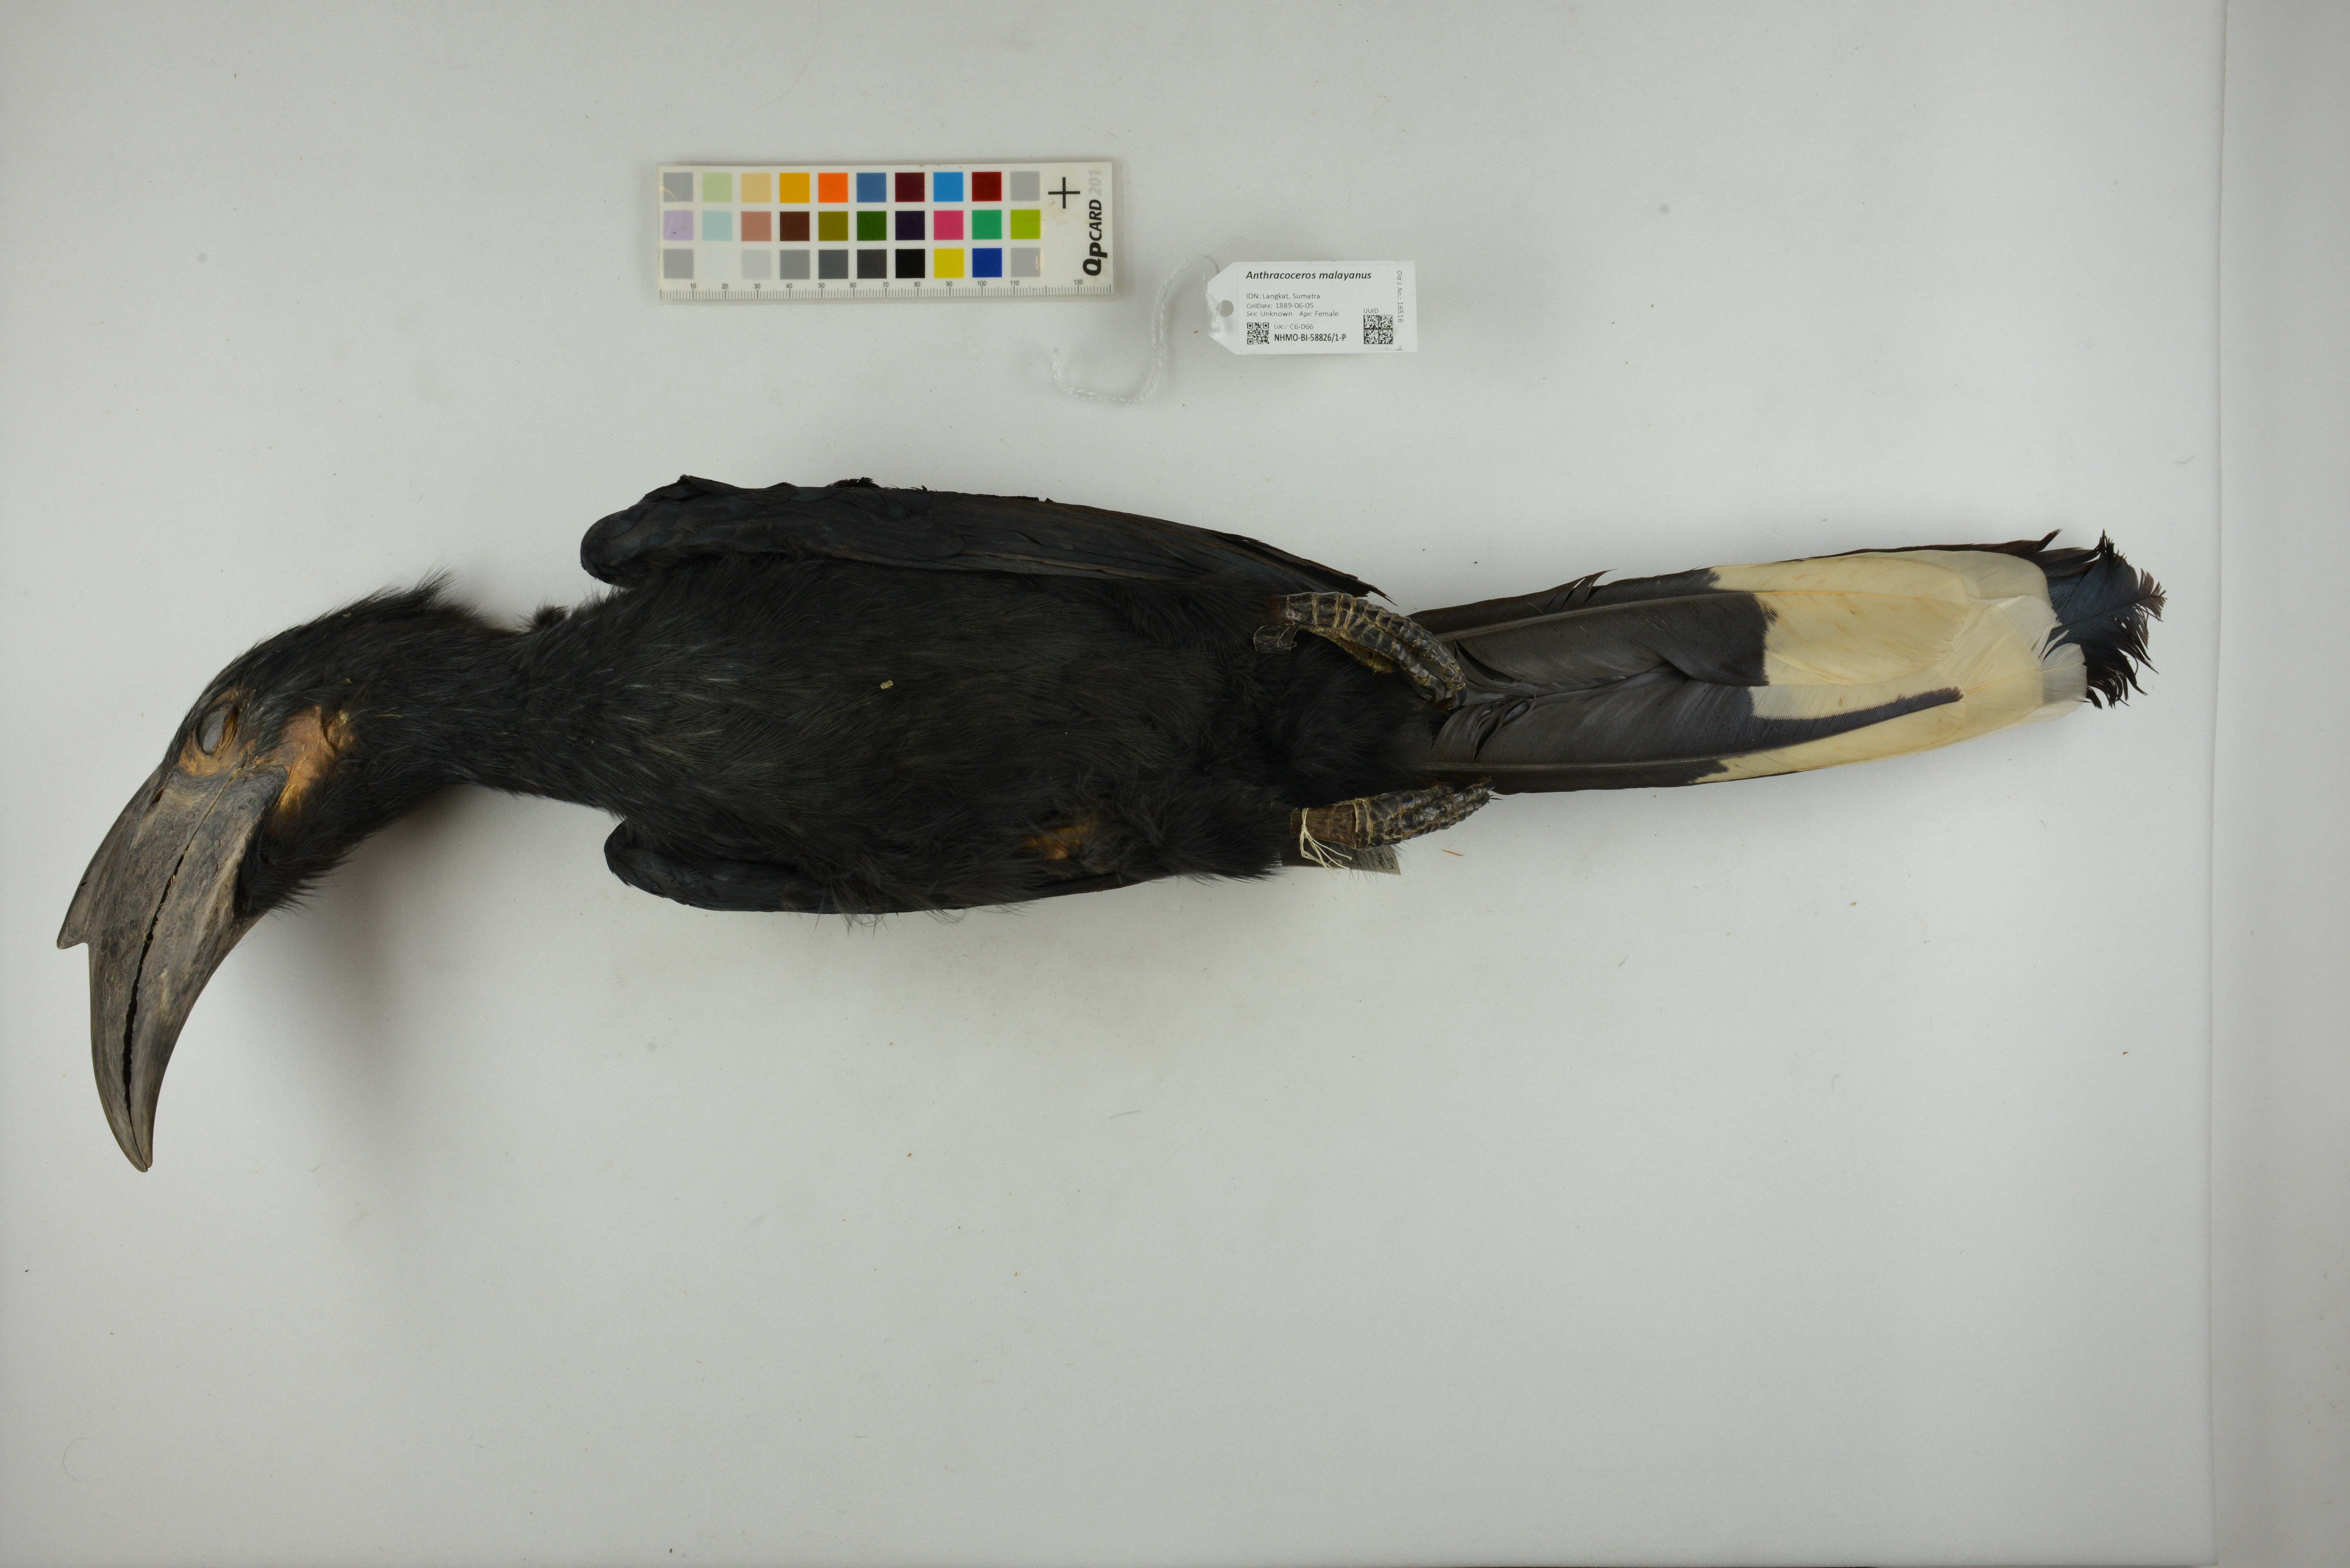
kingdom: Animalia
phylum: Chordata
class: Aves
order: Bucerotiformes
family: Bucerotidae
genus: Anthracoceros
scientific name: Anthracoceros malayanus
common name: Black hornbill
